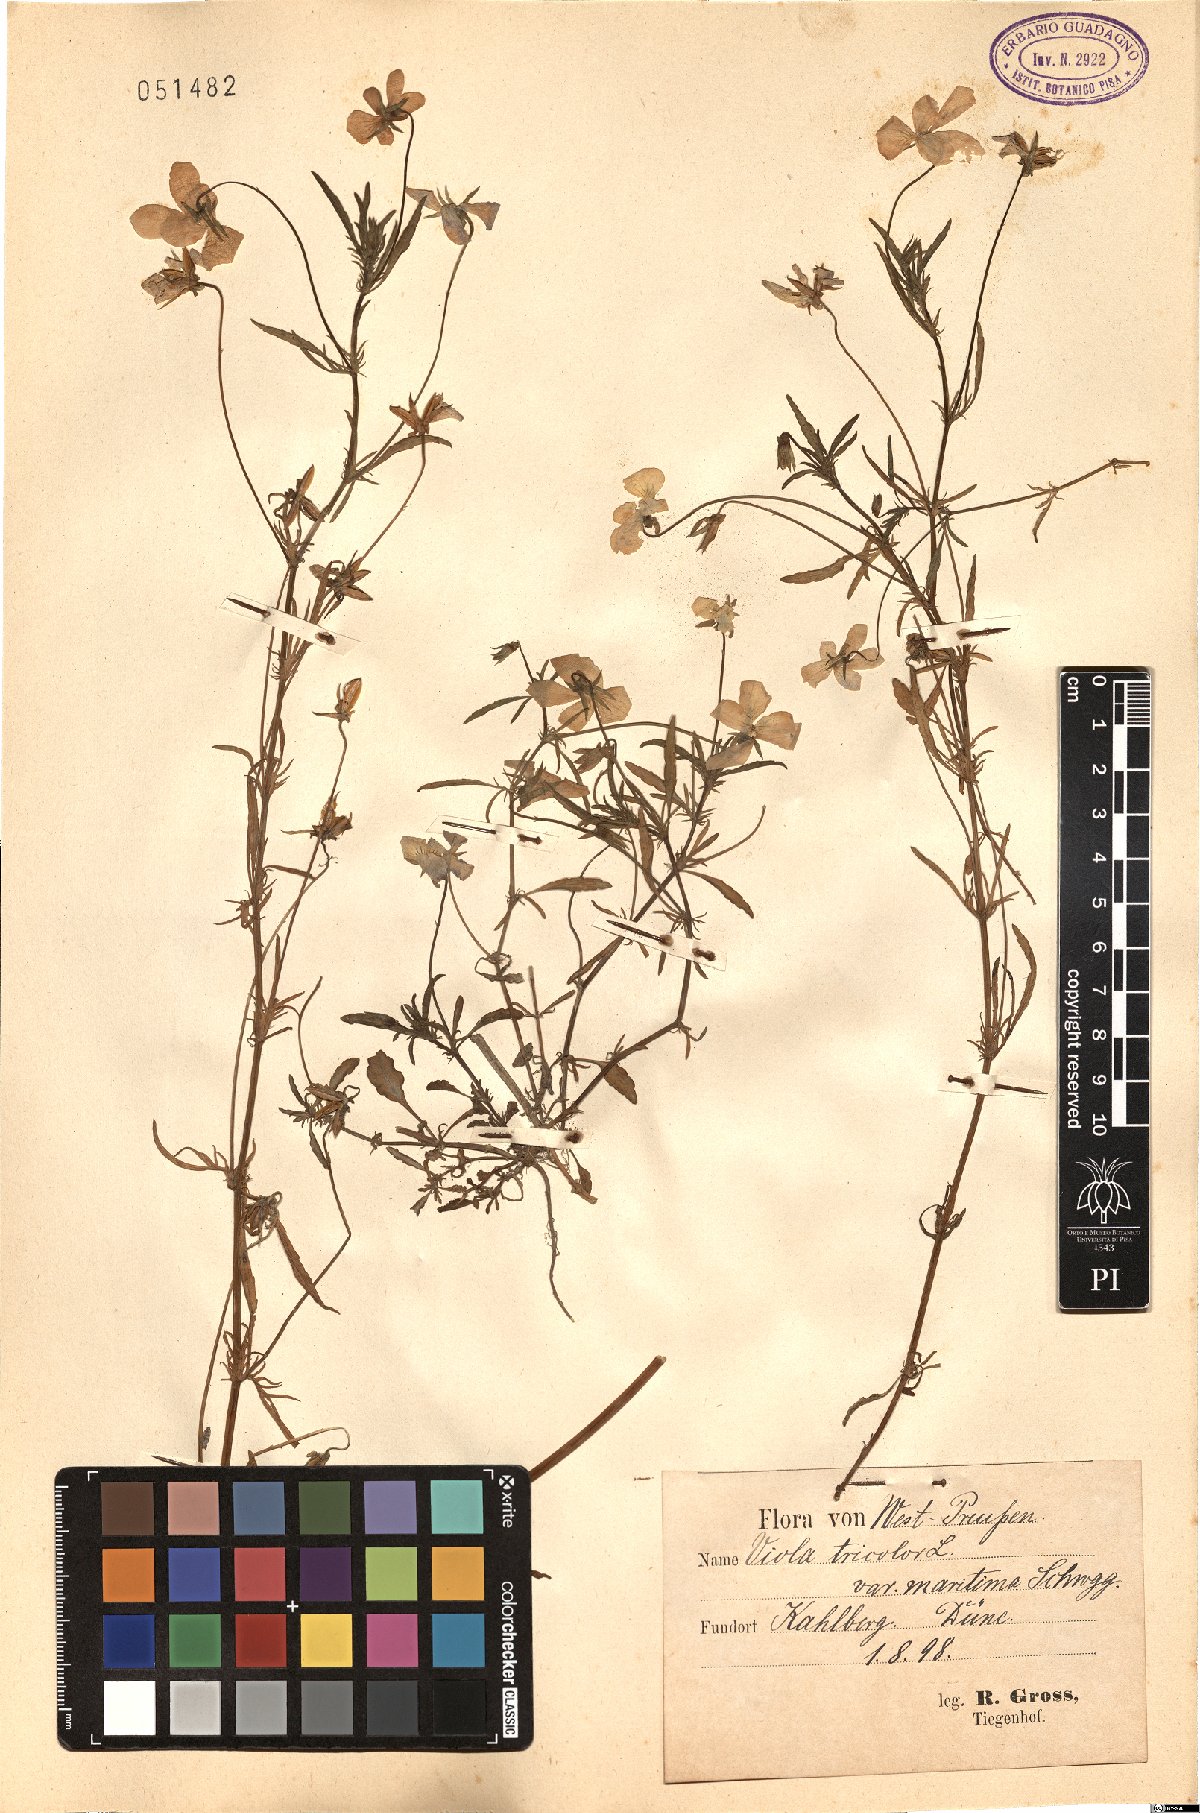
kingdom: Plantae
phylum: Tracheophyta
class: Magnoliopsida
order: Malpighiales
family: Violaceae
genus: Viola
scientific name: Viola tricolor
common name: Pansy
